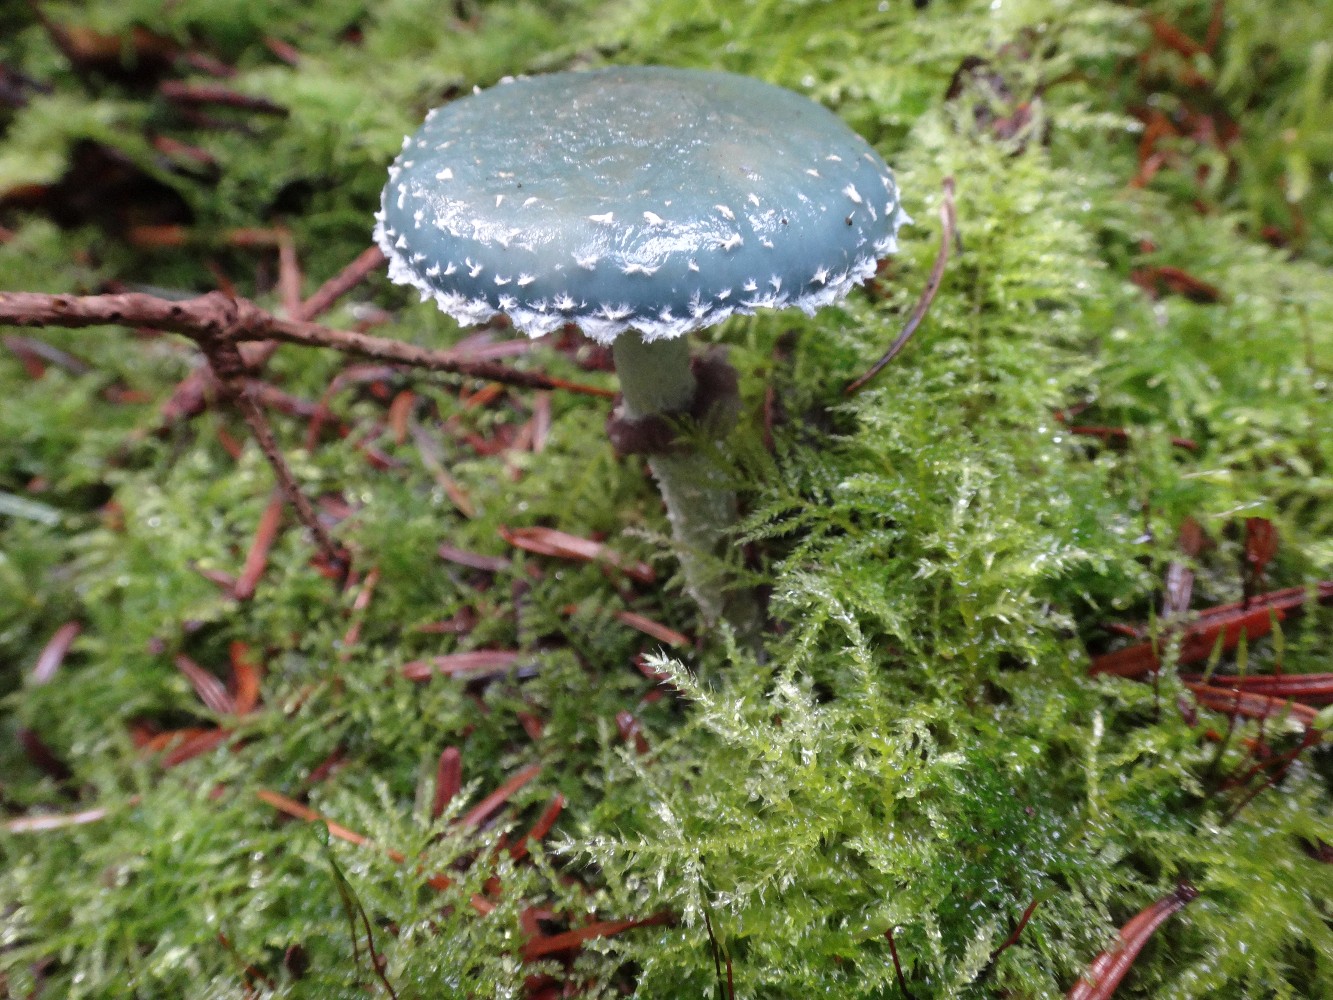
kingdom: Fungi
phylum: Basidiomycota
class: Agaricomycetes
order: Agaricales
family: Strophariaceae
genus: Stropharia
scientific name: Stropharia aeruginosa
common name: spanskgrøn bredblad
